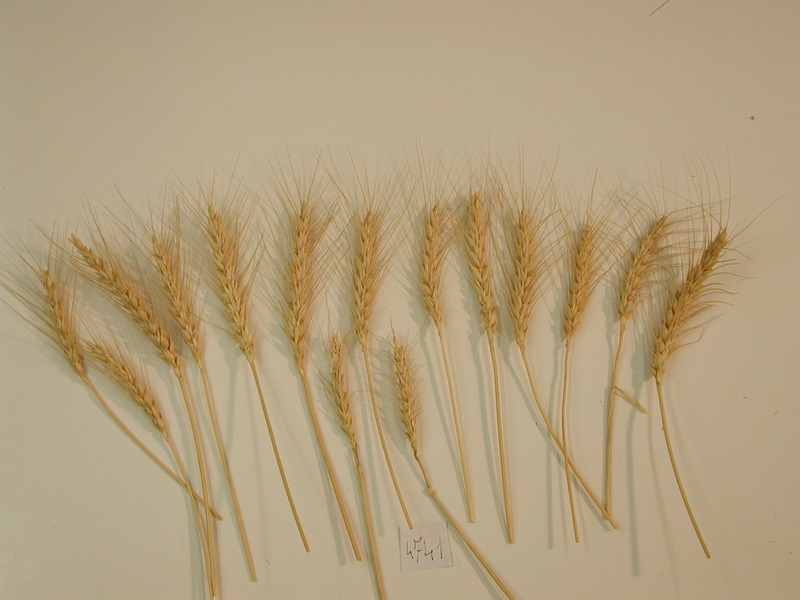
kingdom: Plantae
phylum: Tracheophyta
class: Liliopsida
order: Poales
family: Poaceae
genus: Triticum
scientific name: Triticum aestivum
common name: Wheat
